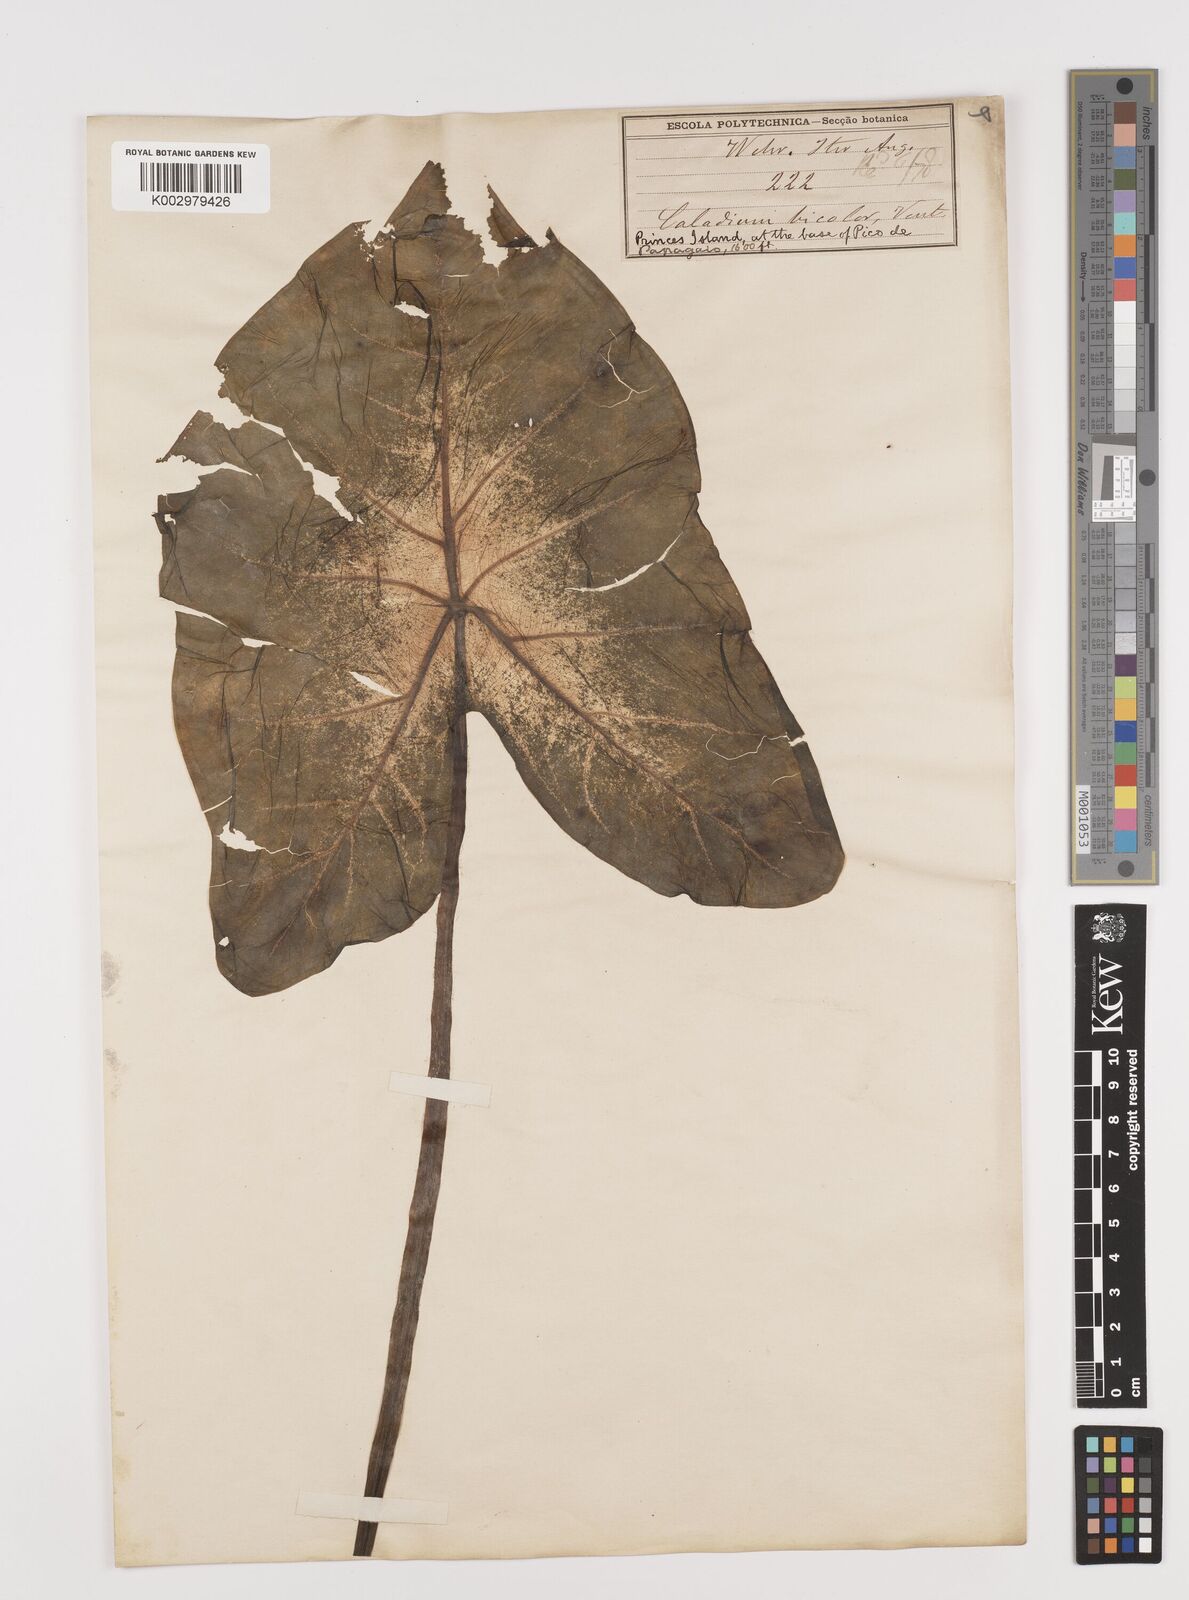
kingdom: Plantae
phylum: Tracheophyta
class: Liliopsida
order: Alismatales
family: Araceae
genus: Caladium
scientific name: Caladium bicolor
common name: Artist's pallet
